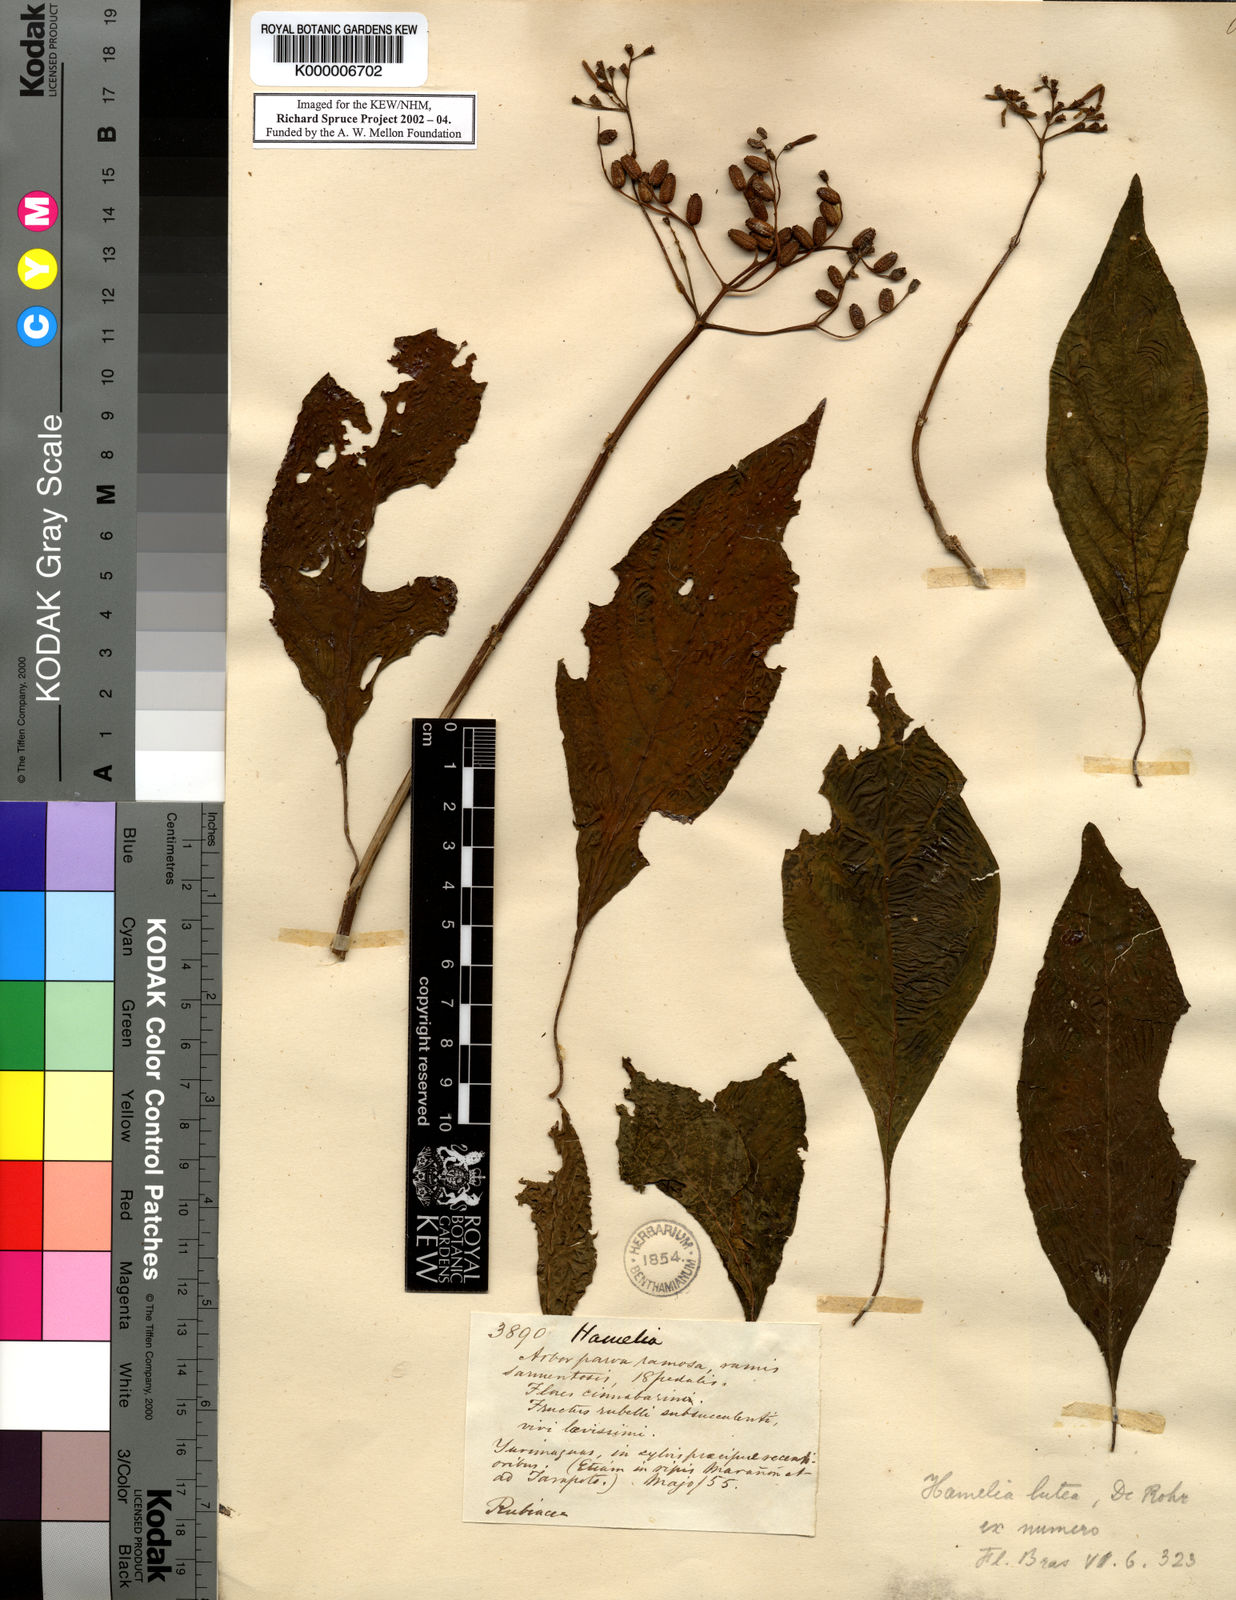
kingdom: Plantae
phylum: Tracheophyta
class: Magnoliopsida
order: Gentianales
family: Rubiaceae
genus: Hamelia
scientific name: Hamelia axillaris
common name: Balsamillo
